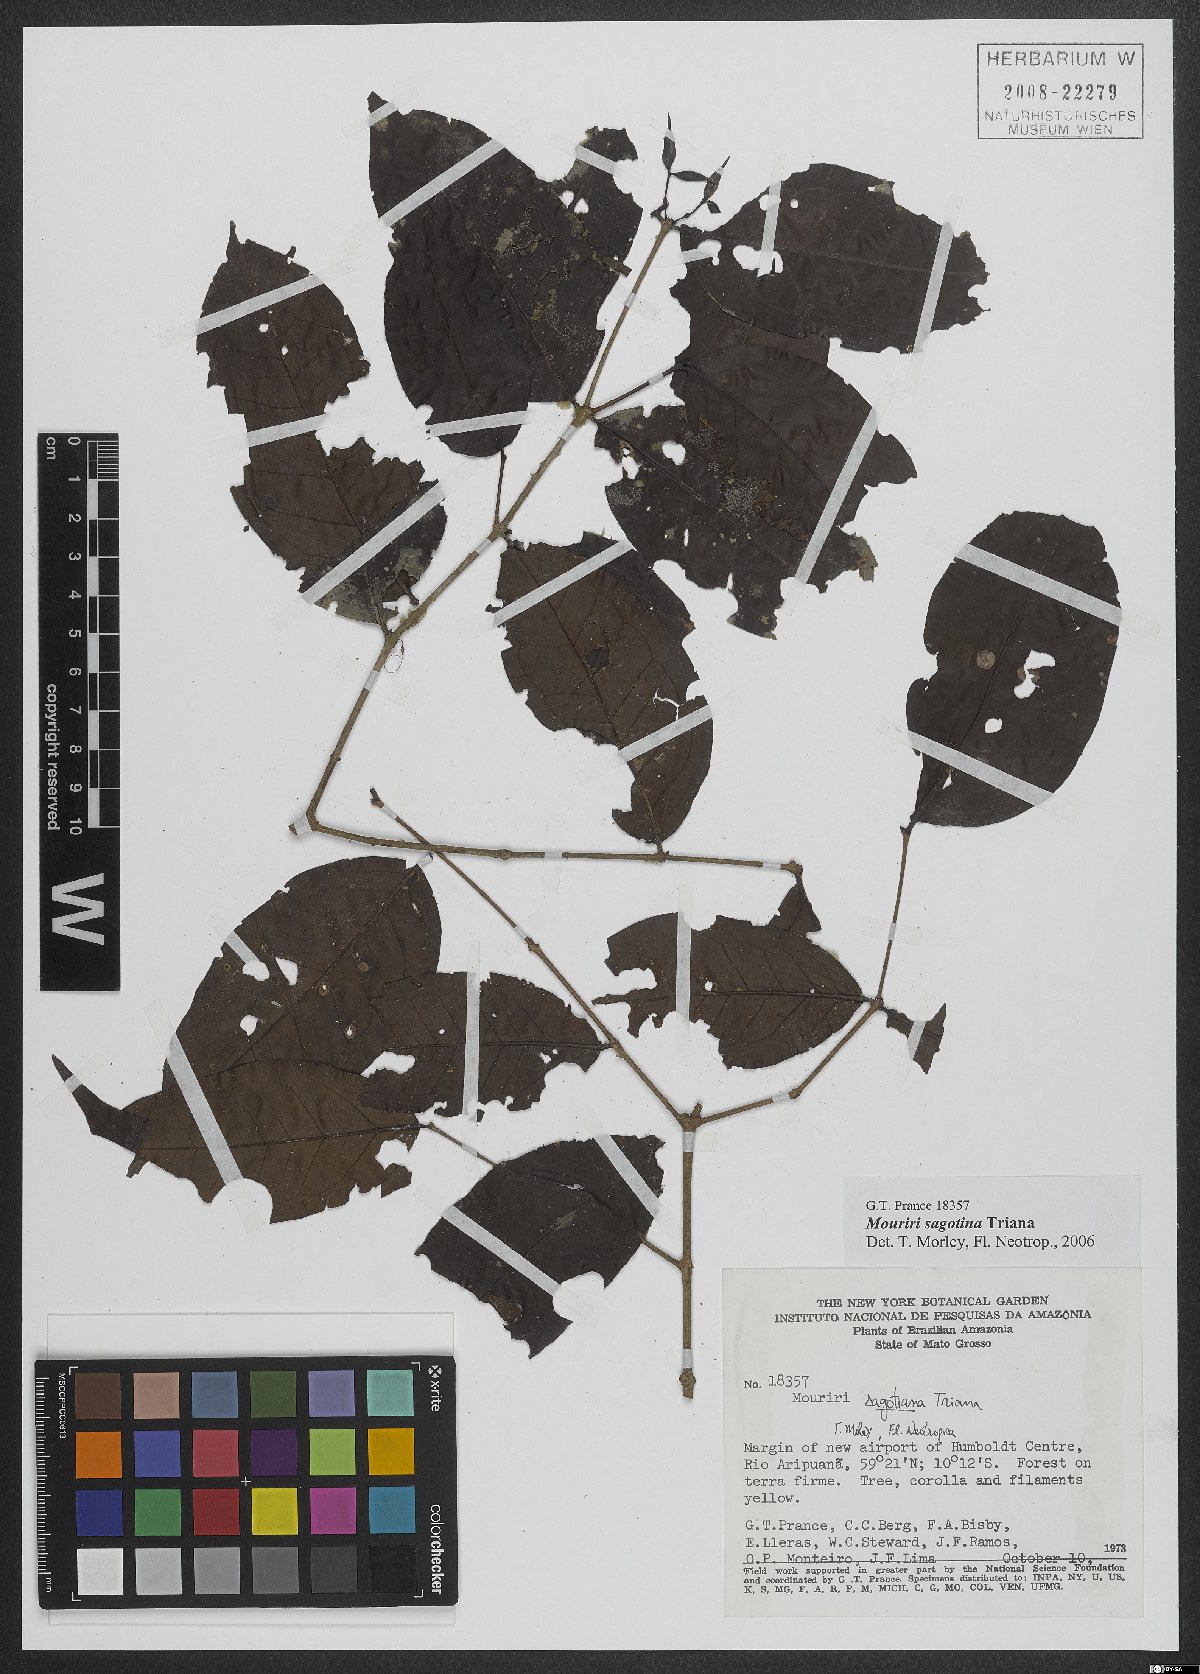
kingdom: Plantae
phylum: Tracheophyta
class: Magnoliopsida
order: Myrtales
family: Melastomataceae
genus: Mouriri
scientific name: Mouriri sagotiana
